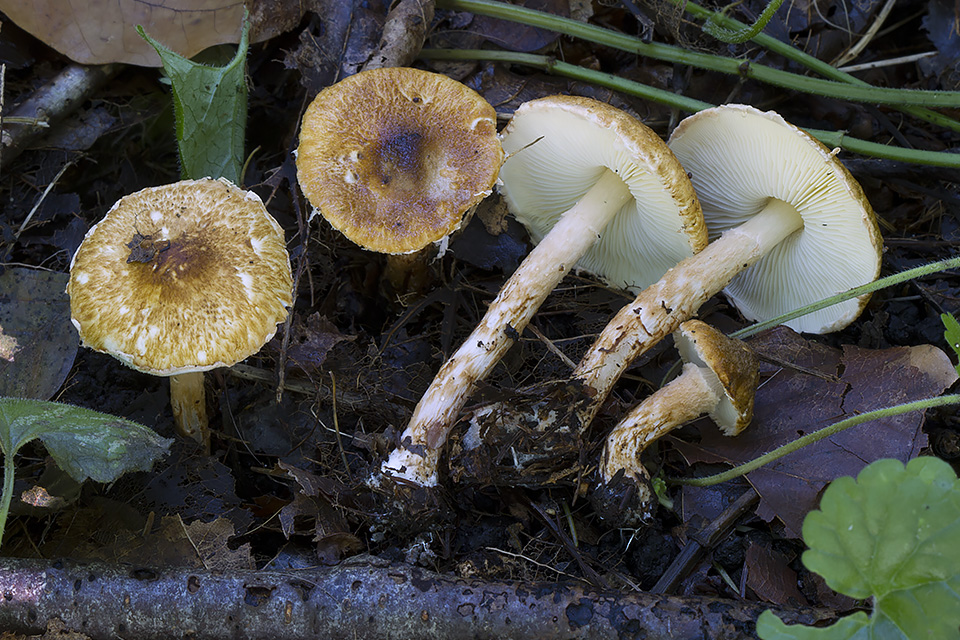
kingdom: Fungi
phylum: Basidiomycota
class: Agaricomycetes
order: Agaricales
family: Agaricaceae
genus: Leucocoprinus
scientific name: Leucocoprinus straminellus
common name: rustbrun parasolhat
